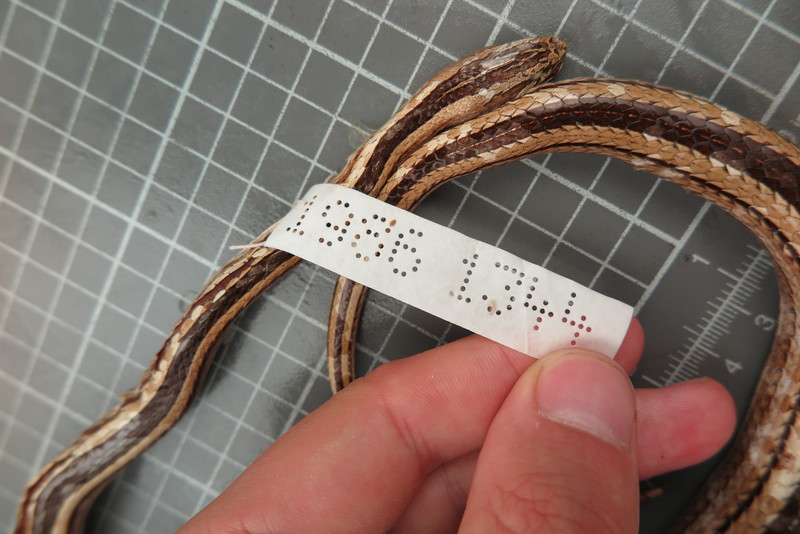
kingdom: Animalia
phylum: Chordata
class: Squamata
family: Psammophiidae
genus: Mimophis
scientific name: Mimophis
